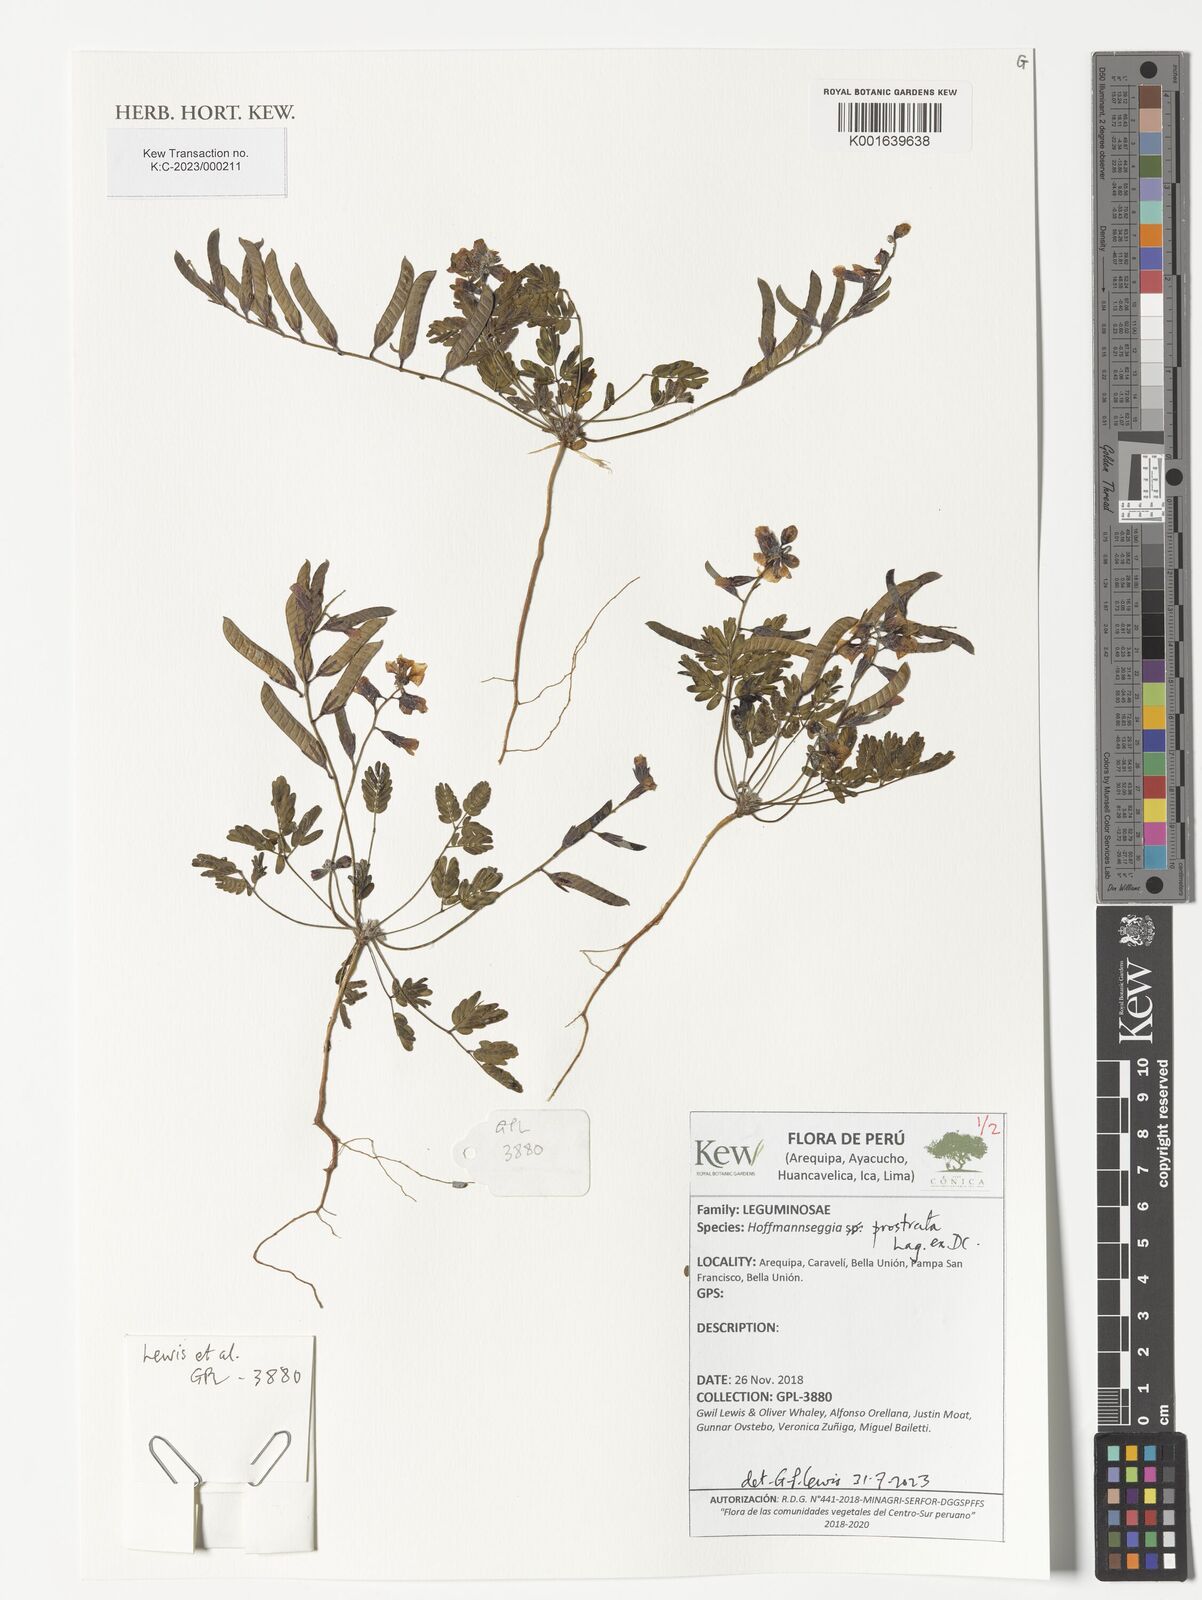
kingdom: Plantae
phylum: Tracheophyta
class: Magnoliopsida
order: Fabales
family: Fabaceae
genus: Hoffmannseggia
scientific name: Hoffmannseggia prostrata
